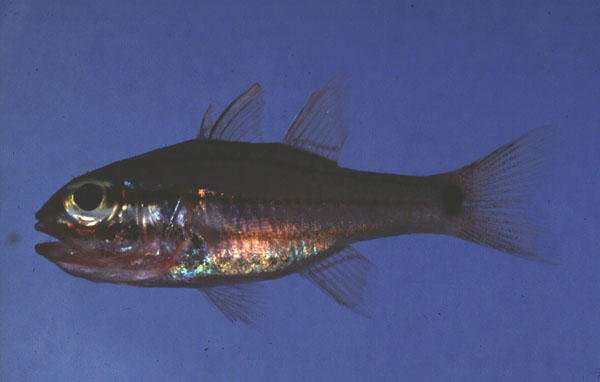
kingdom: Animalia
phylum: Chordata
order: Perciformes
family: Apogonidae
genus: Ostorhinchus
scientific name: Ostorhinchus doederleini
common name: Doederlein's cardinalfish
